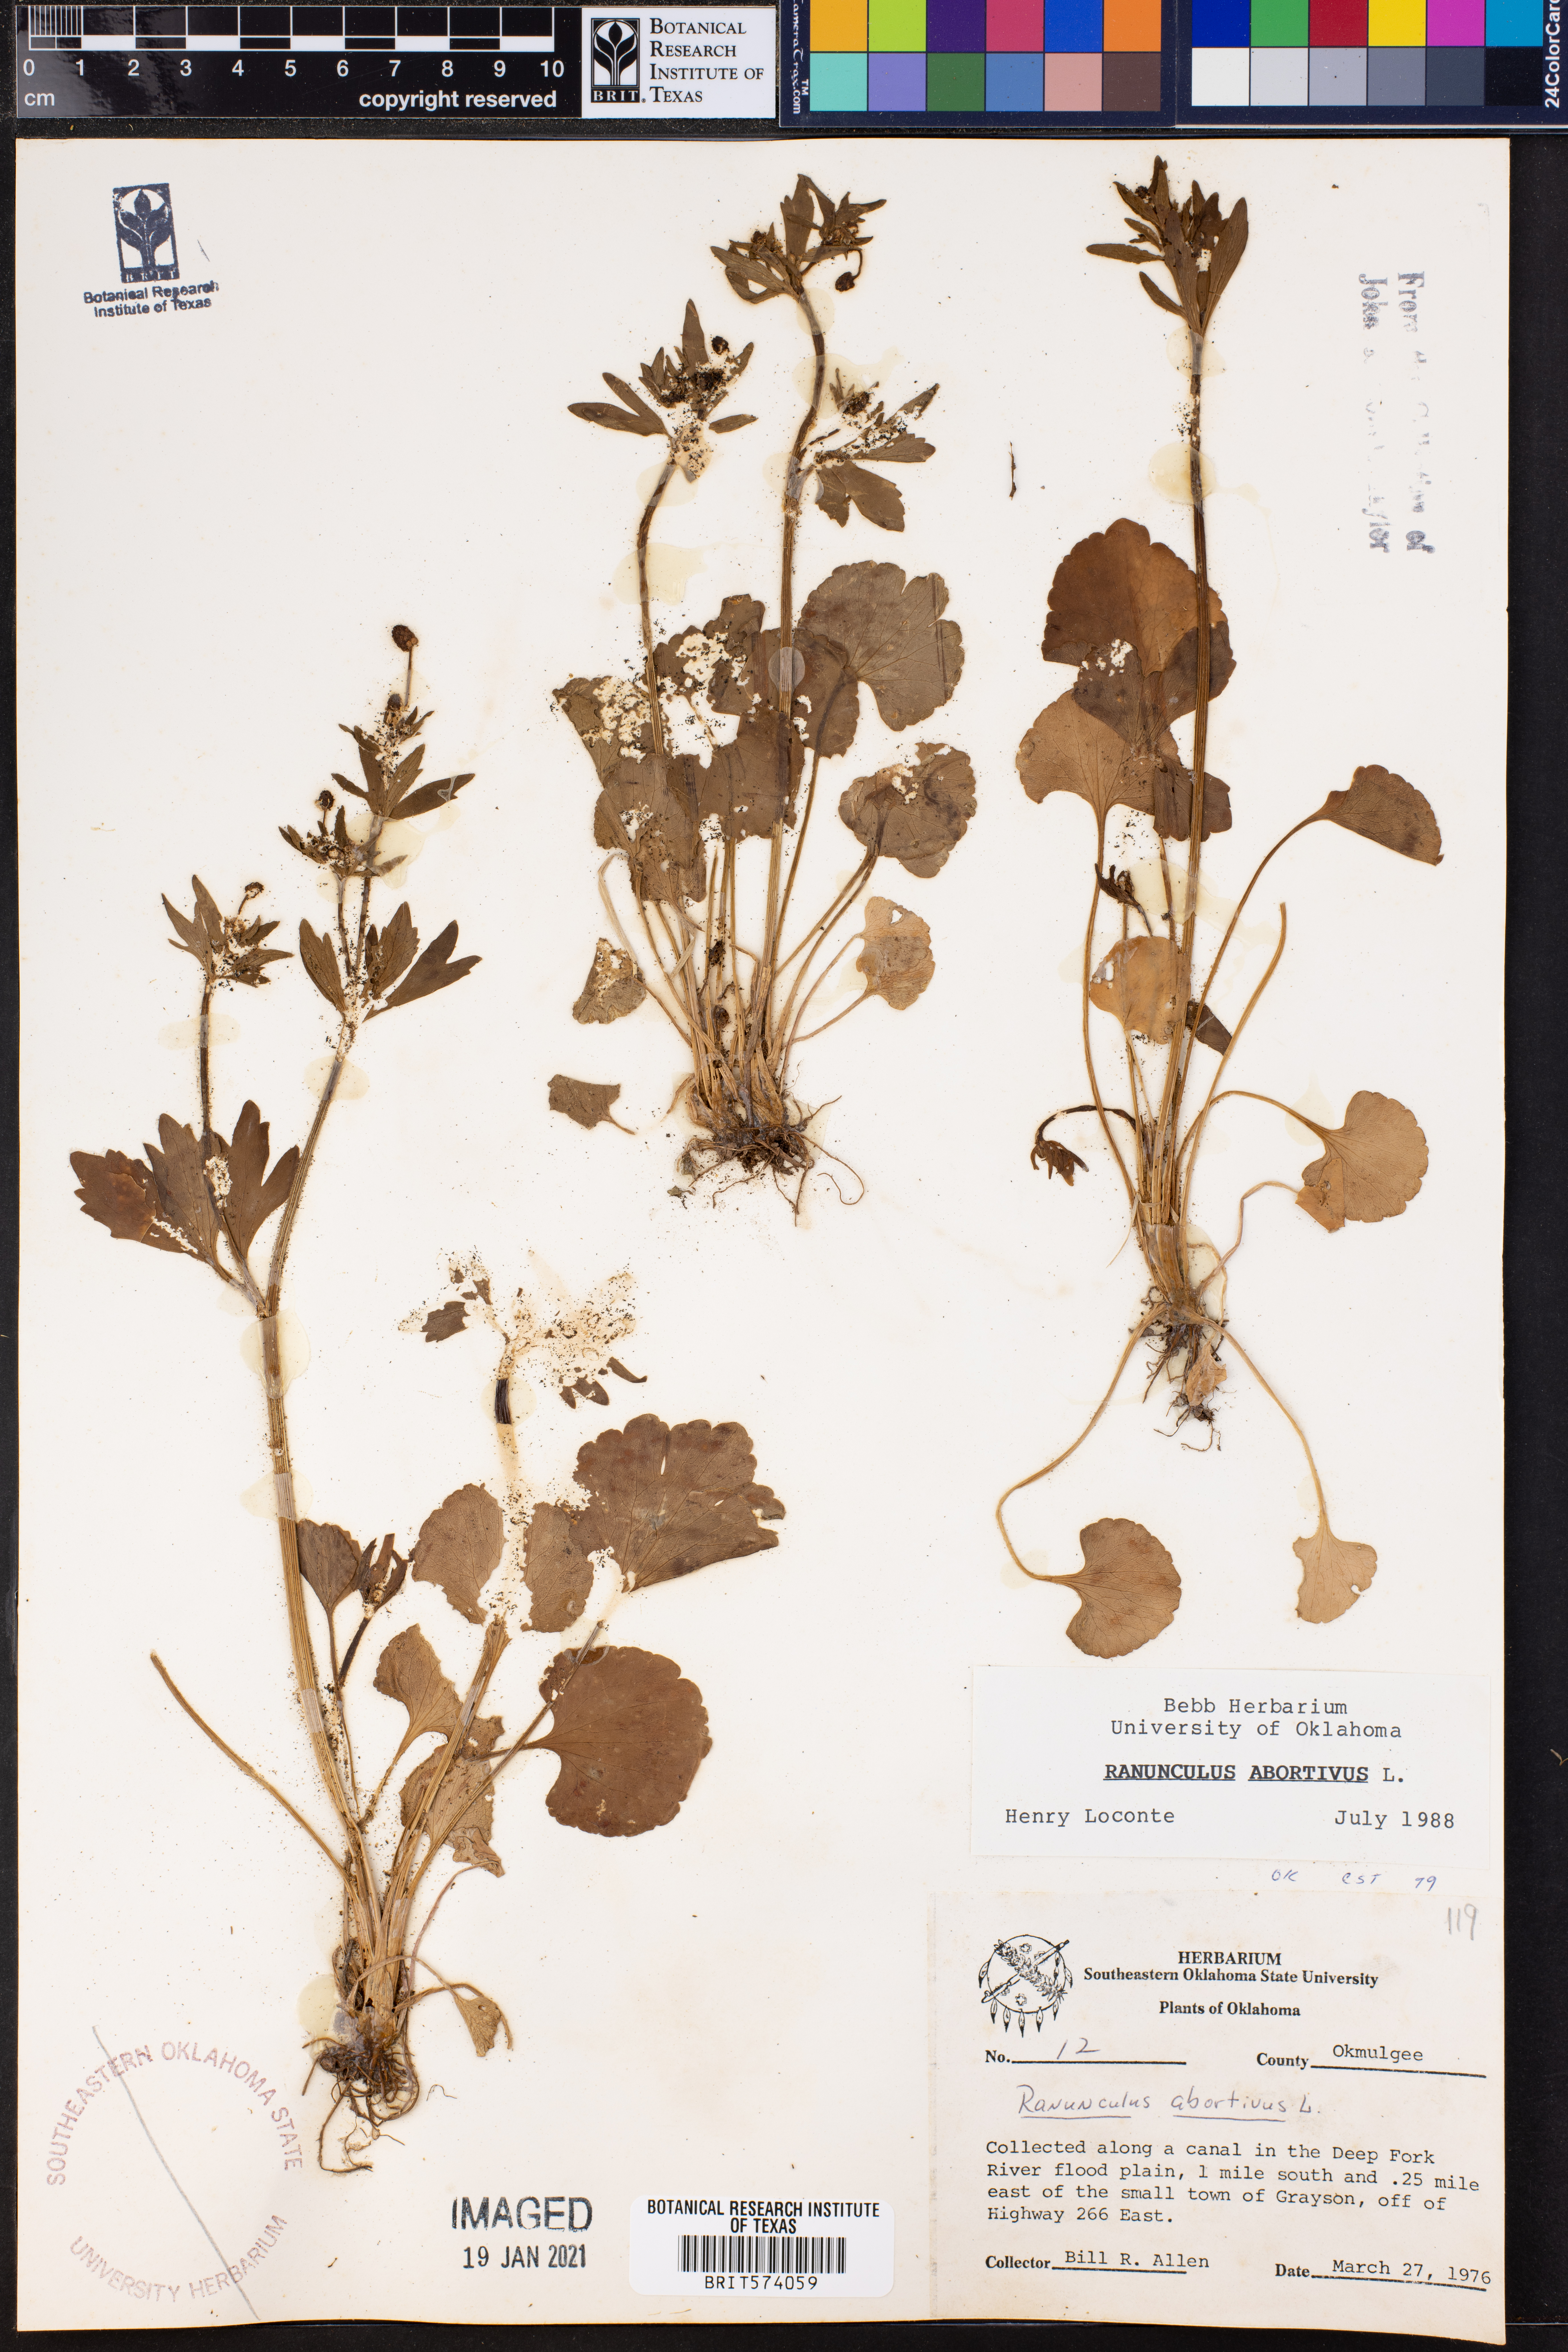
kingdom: Plantae
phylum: Tracheophyta
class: Magnoliopsida
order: Ranunculales
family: Ranunculaceae
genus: Ranunculus
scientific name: Ranunculus abortivus
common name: Early wood buttercup
